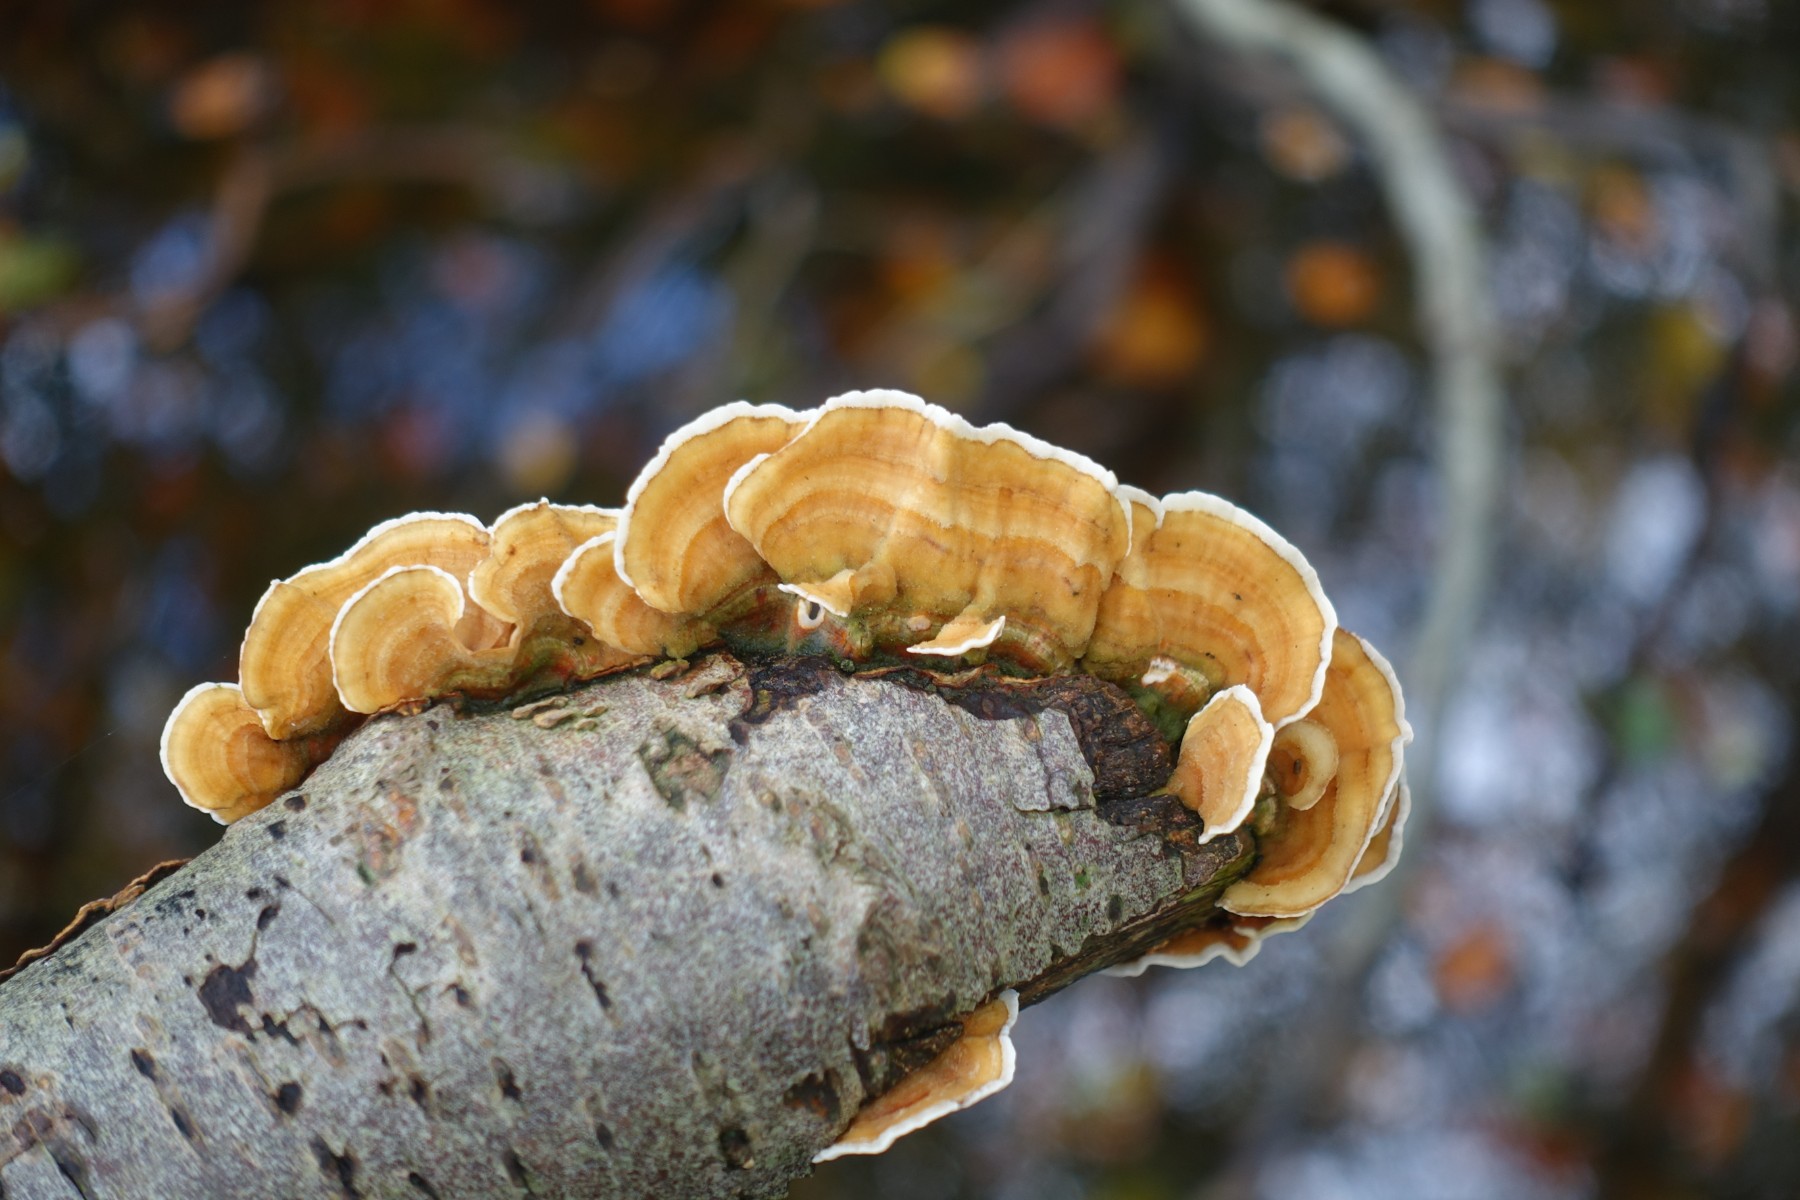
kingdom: Fungi
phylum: Basidiomycota
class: Agaricomycetes
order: Russulales
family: Stereaceae
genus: Stereum
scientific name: Stereum subtomentosum
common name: smuk lædersvamp
